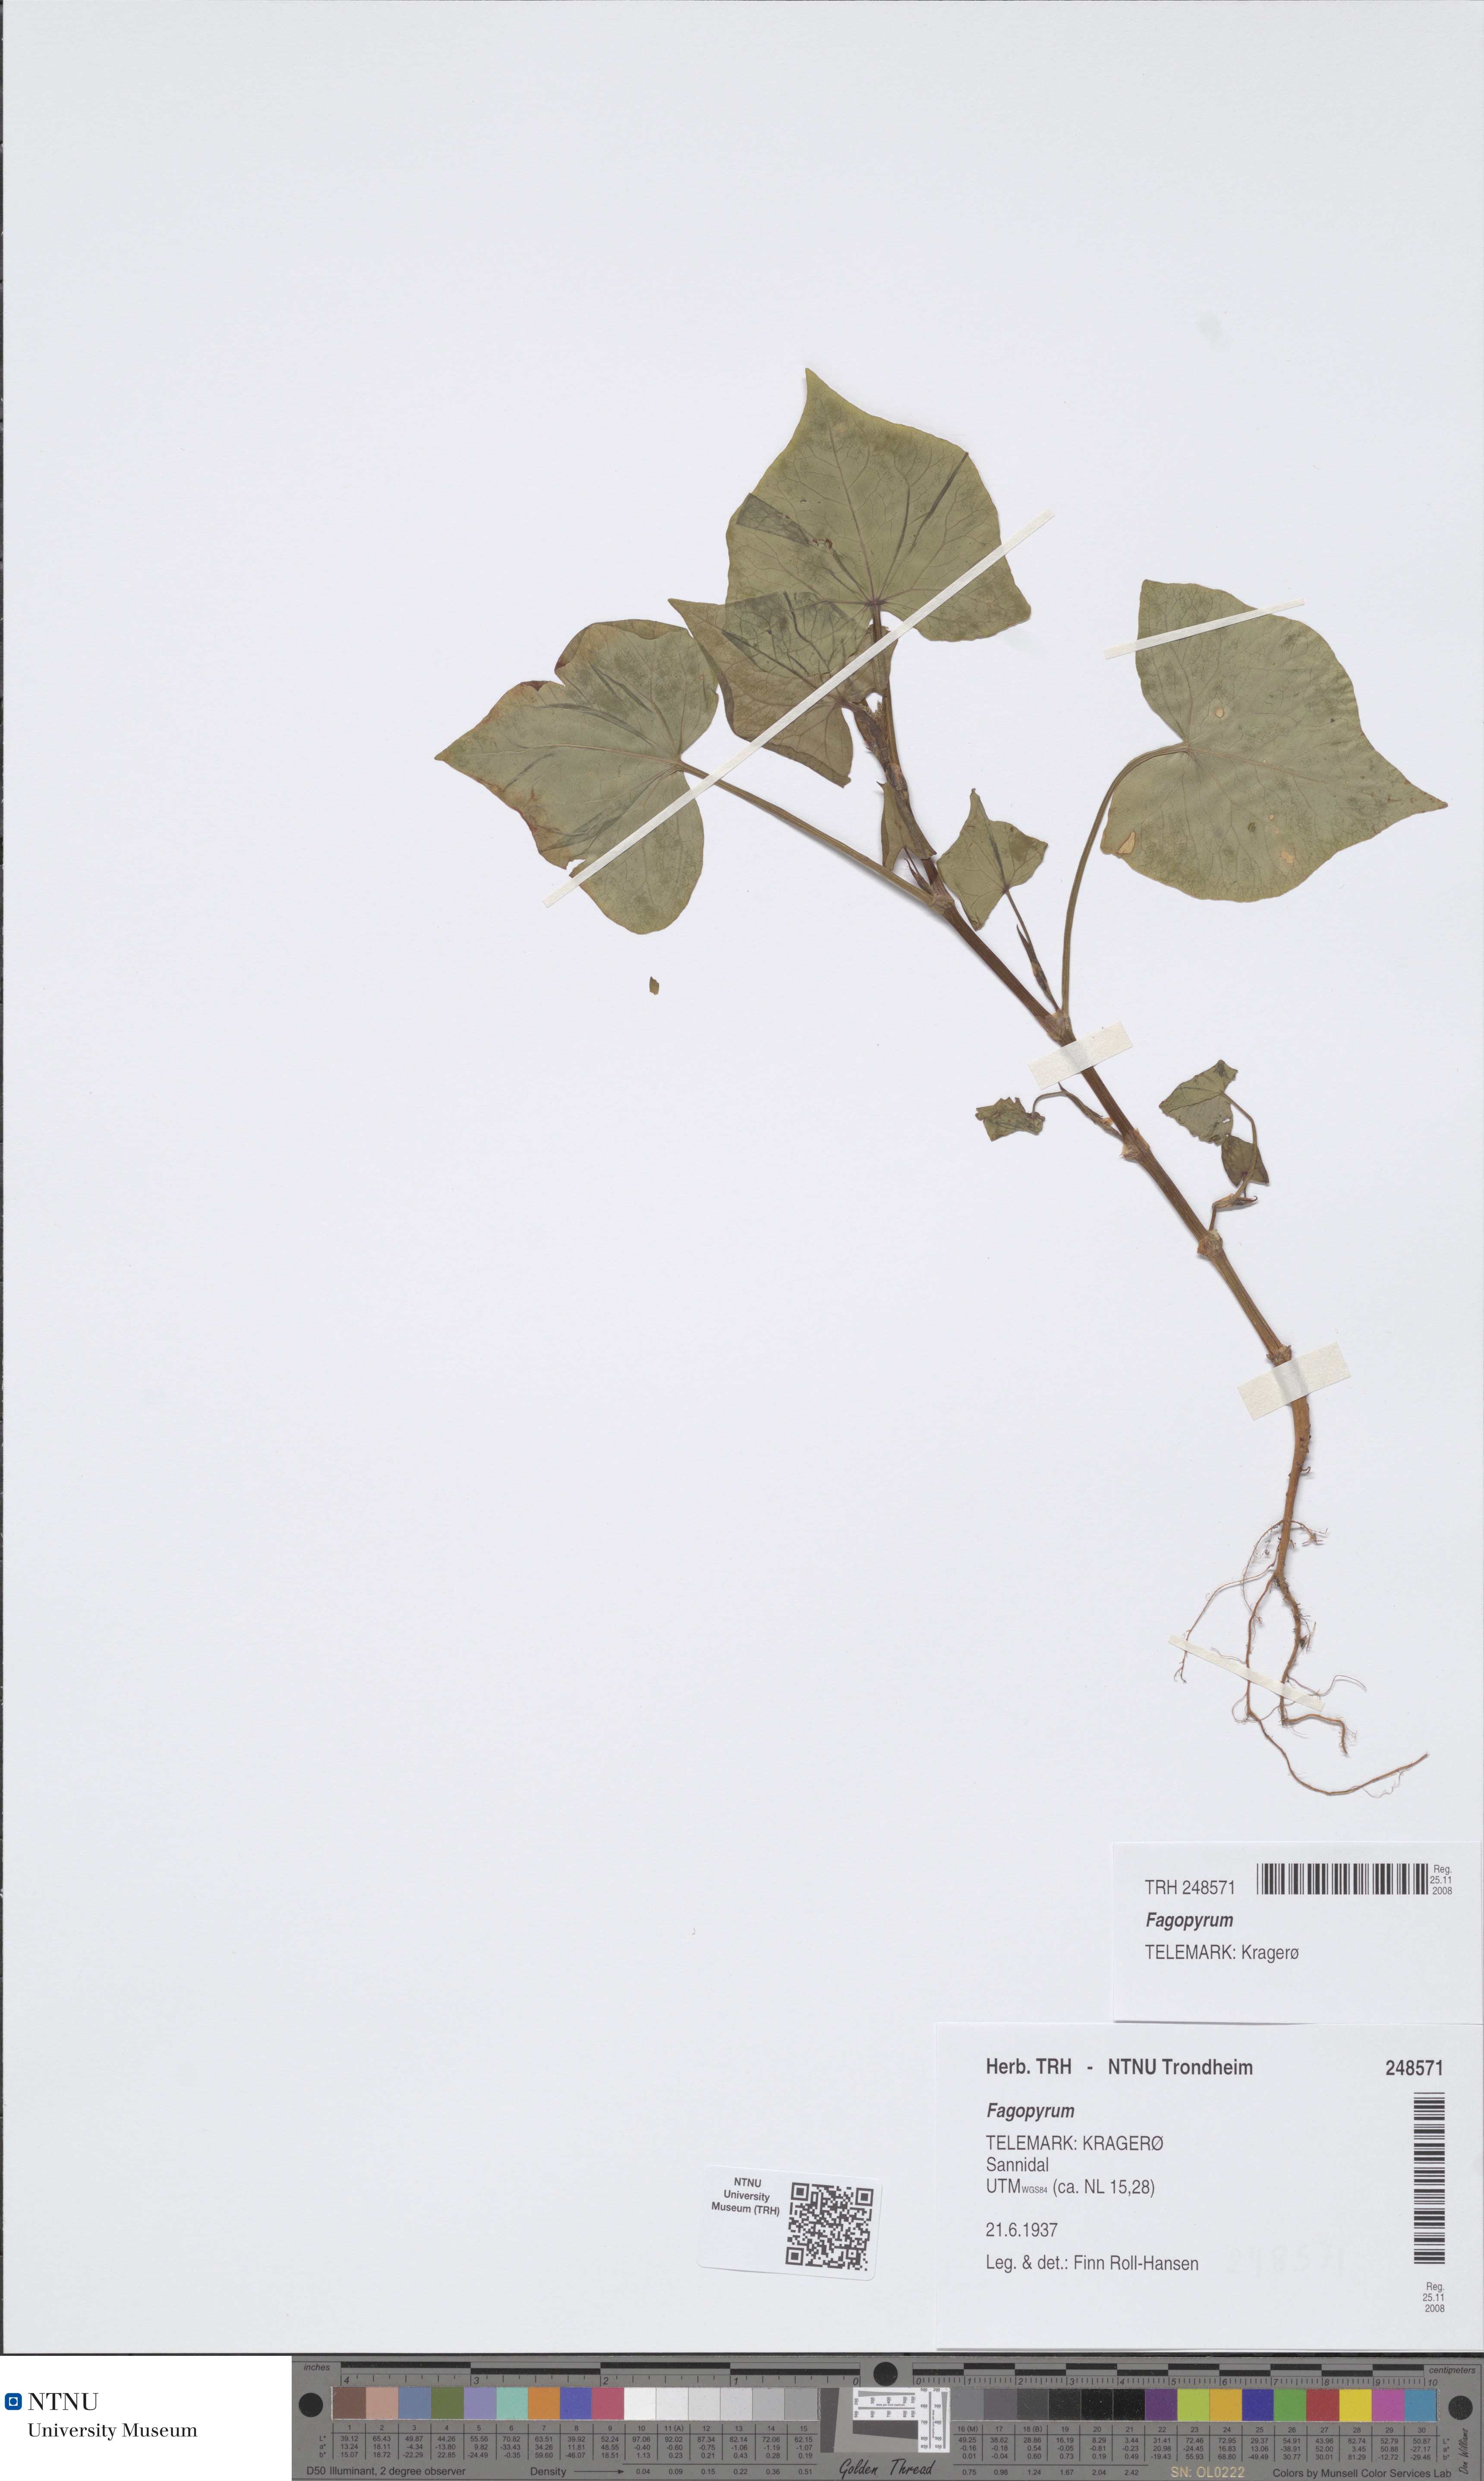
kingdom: Plantae
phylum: Tracheophyta
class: Magnoliopsida
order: Caryophyllales
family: Polygonaceae
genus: Fagopyrum
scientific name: Fagopyrum tataricum
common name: Green buckwheat
